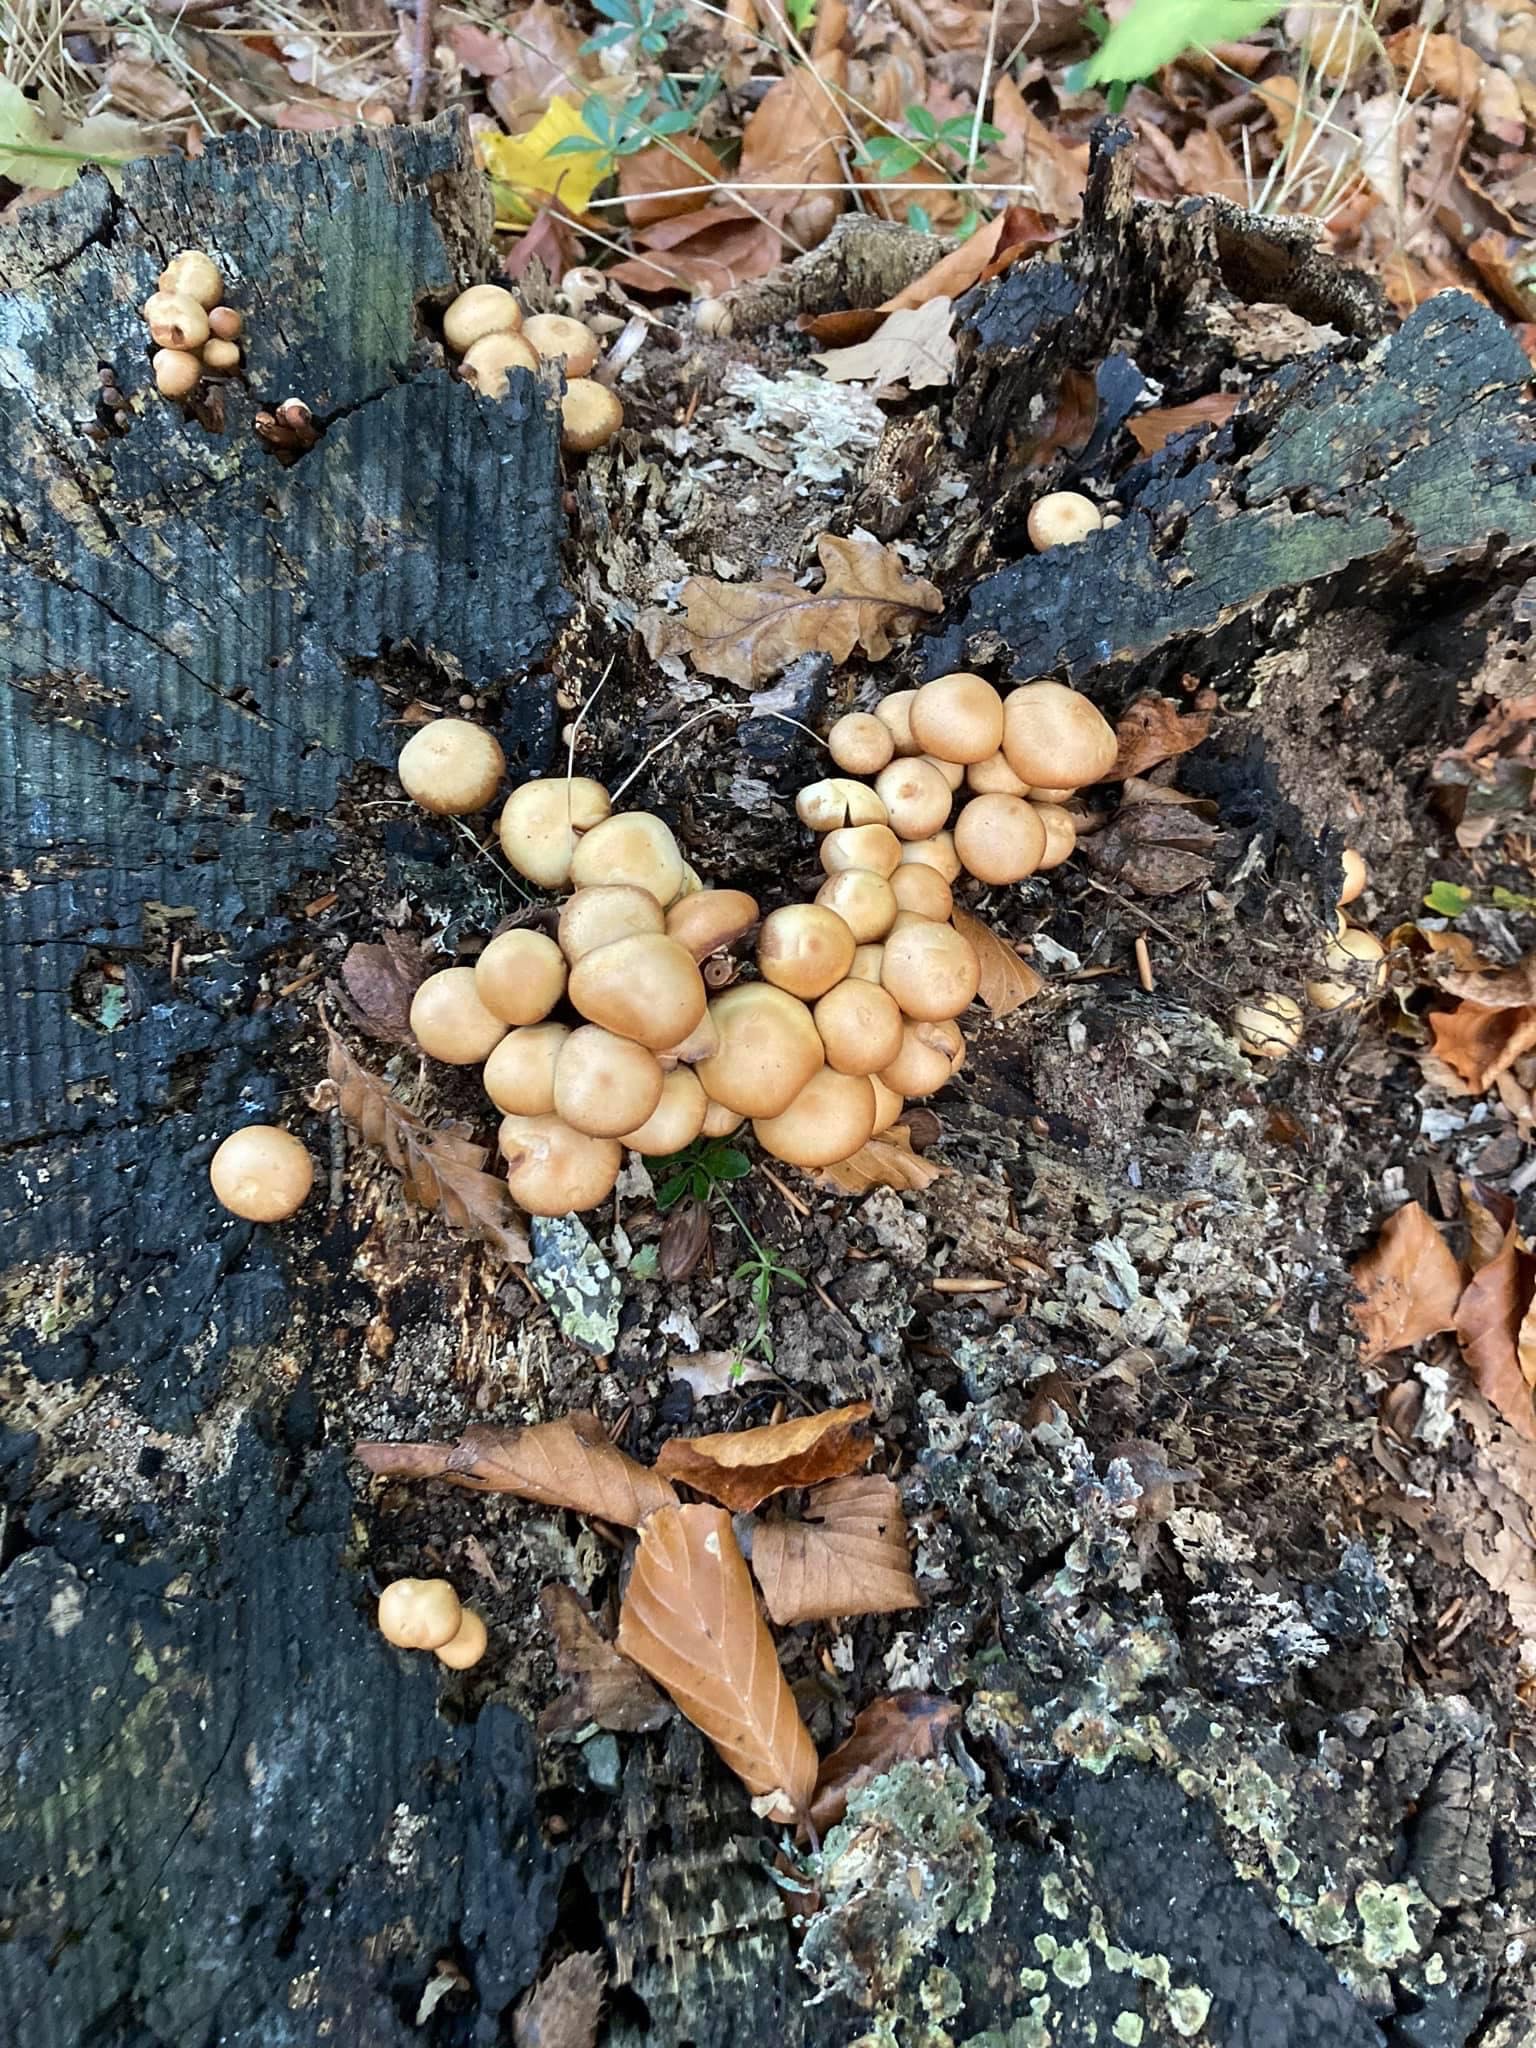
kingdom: Fungi
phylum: Basidiomycota
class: Agaricomycetes
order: Agaricales
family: Strophariaceae
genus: Kuehneromyces
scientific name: Kuehneromyces mutabilis
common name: foranderlig skælhat
